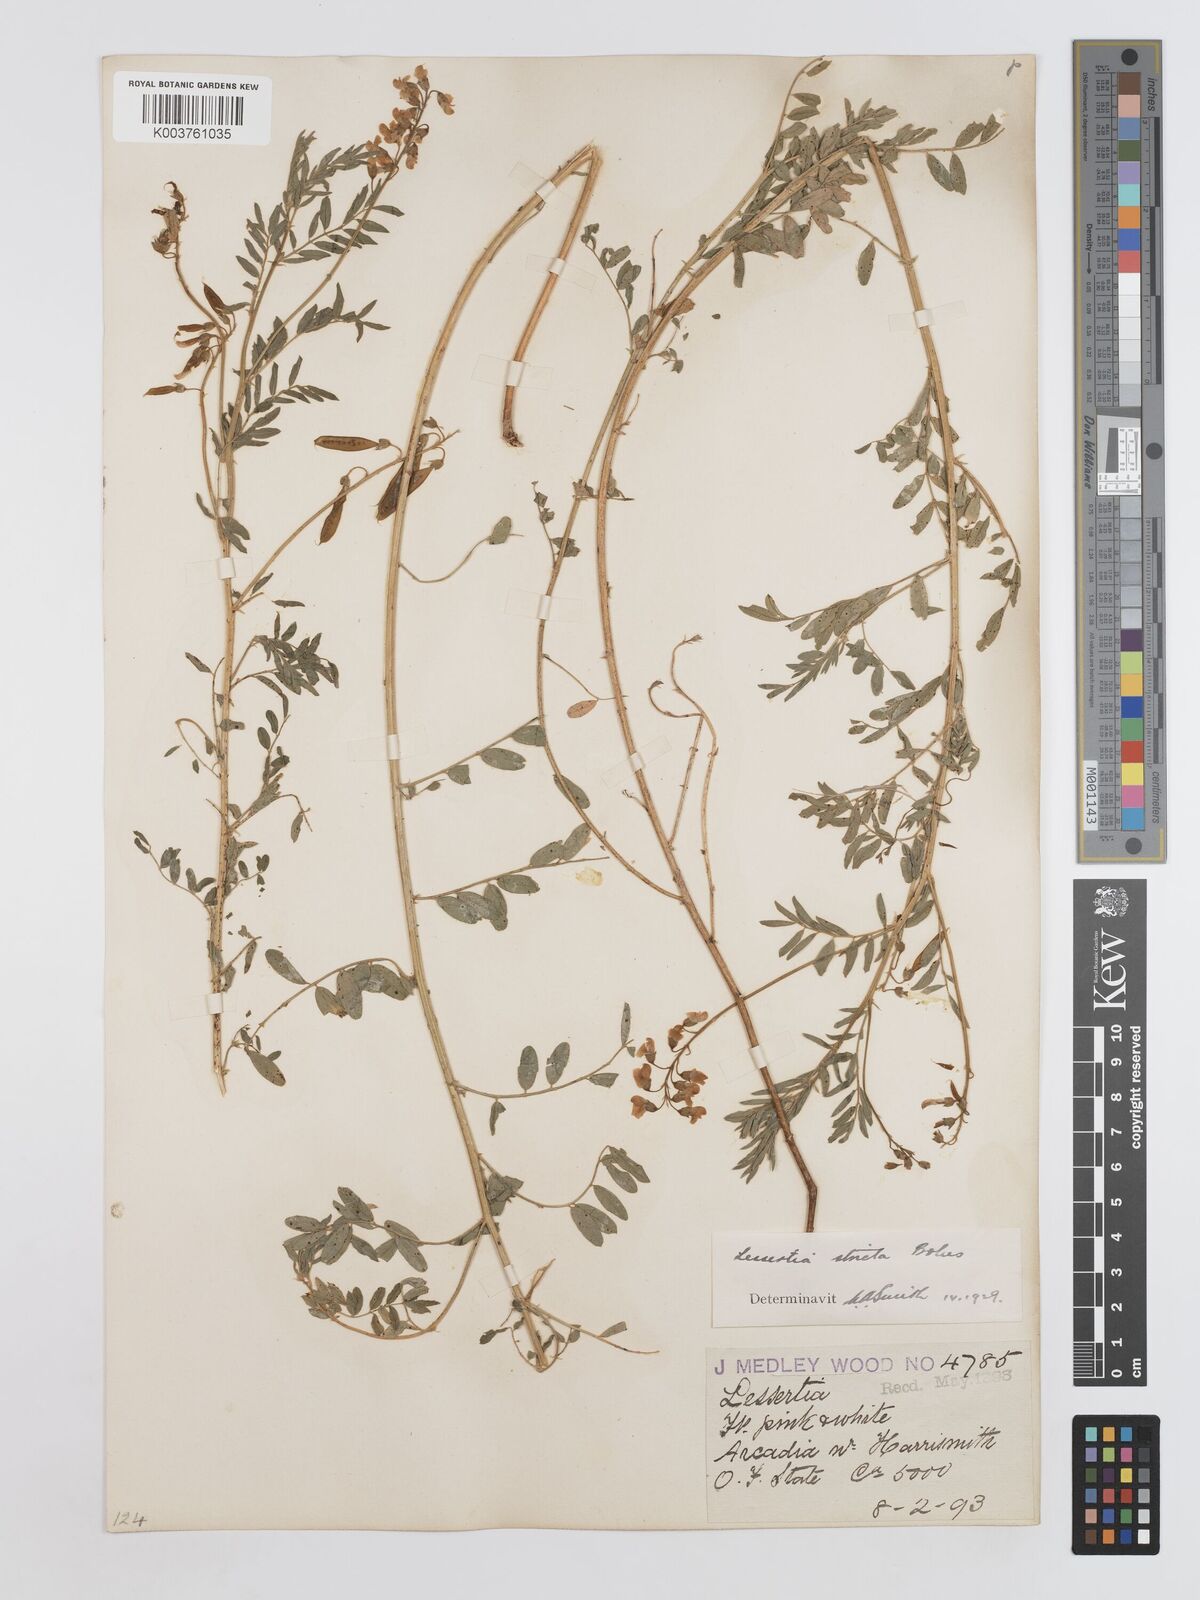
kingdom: Plantae
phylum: Tracheophyta
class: Magnoliopsida
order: Fabales
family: Fabaceae
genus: Lessertia
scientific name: Lessertia stricta
